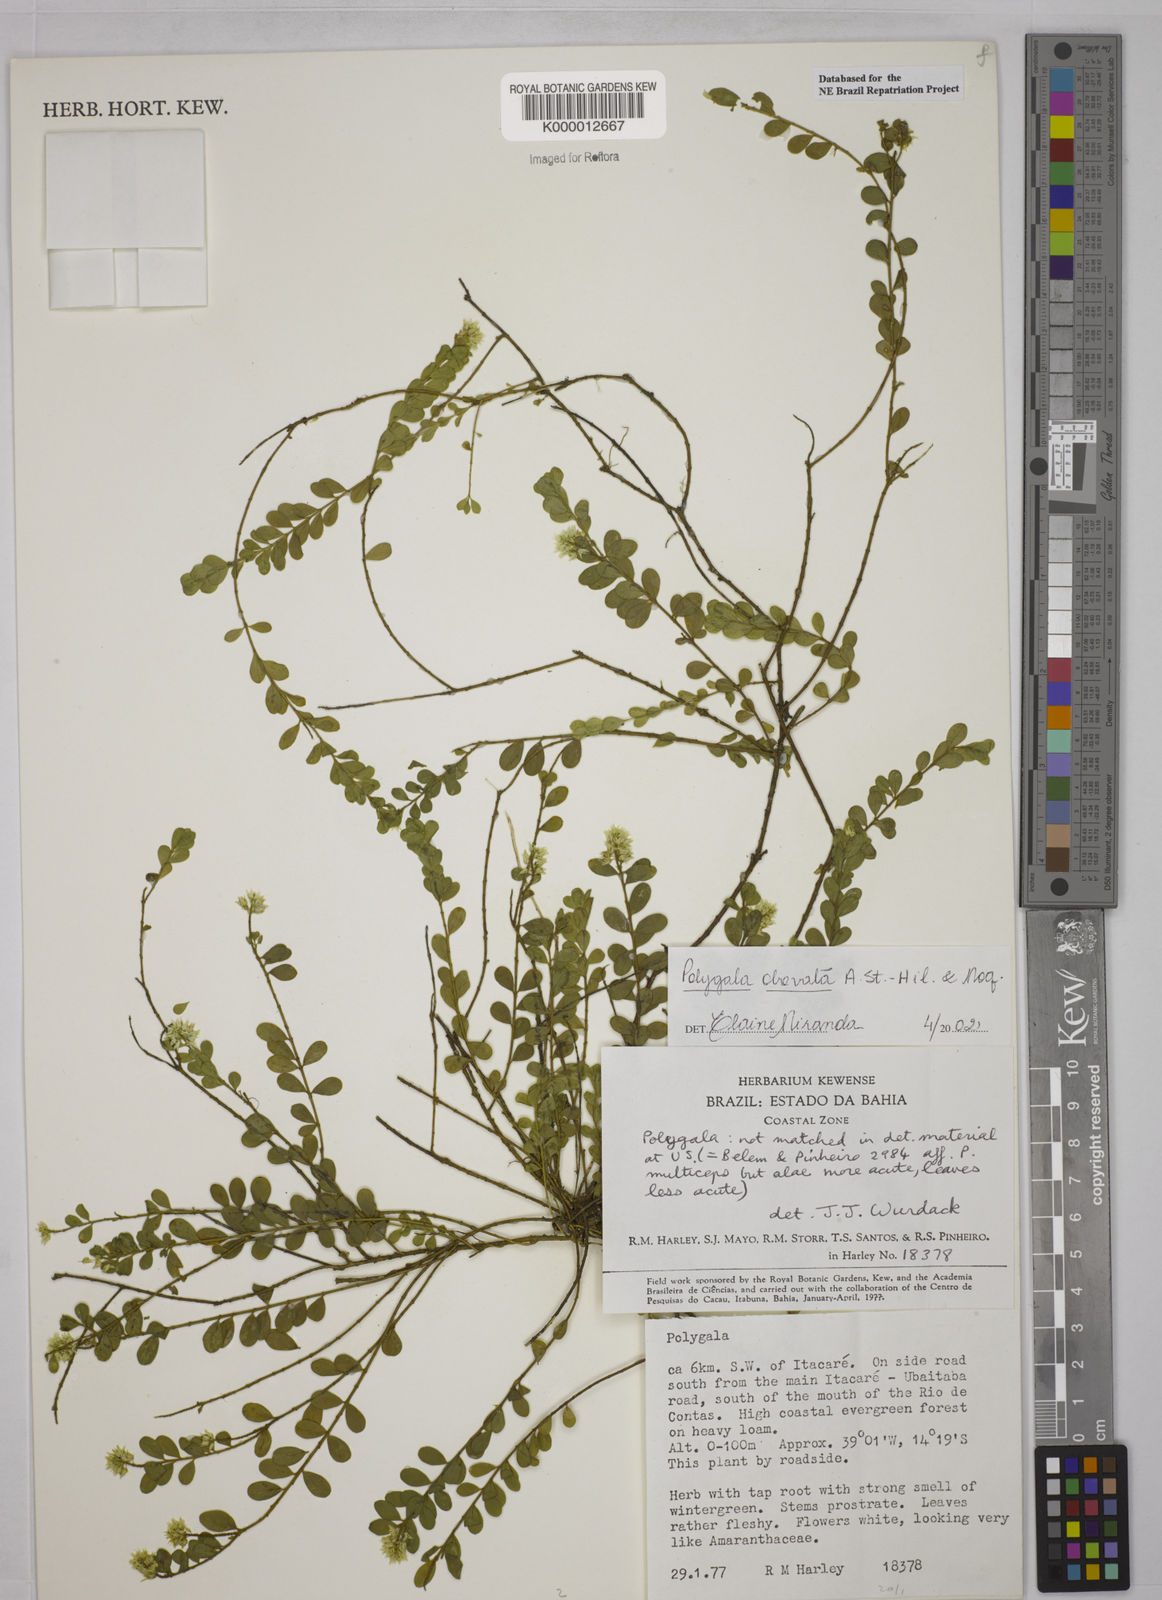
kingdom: Plantae
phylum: Tracheophyta
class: Magnoliopsida
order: Fabales
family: Polygalaceae
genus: Polygala
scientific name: Polygala obovata
